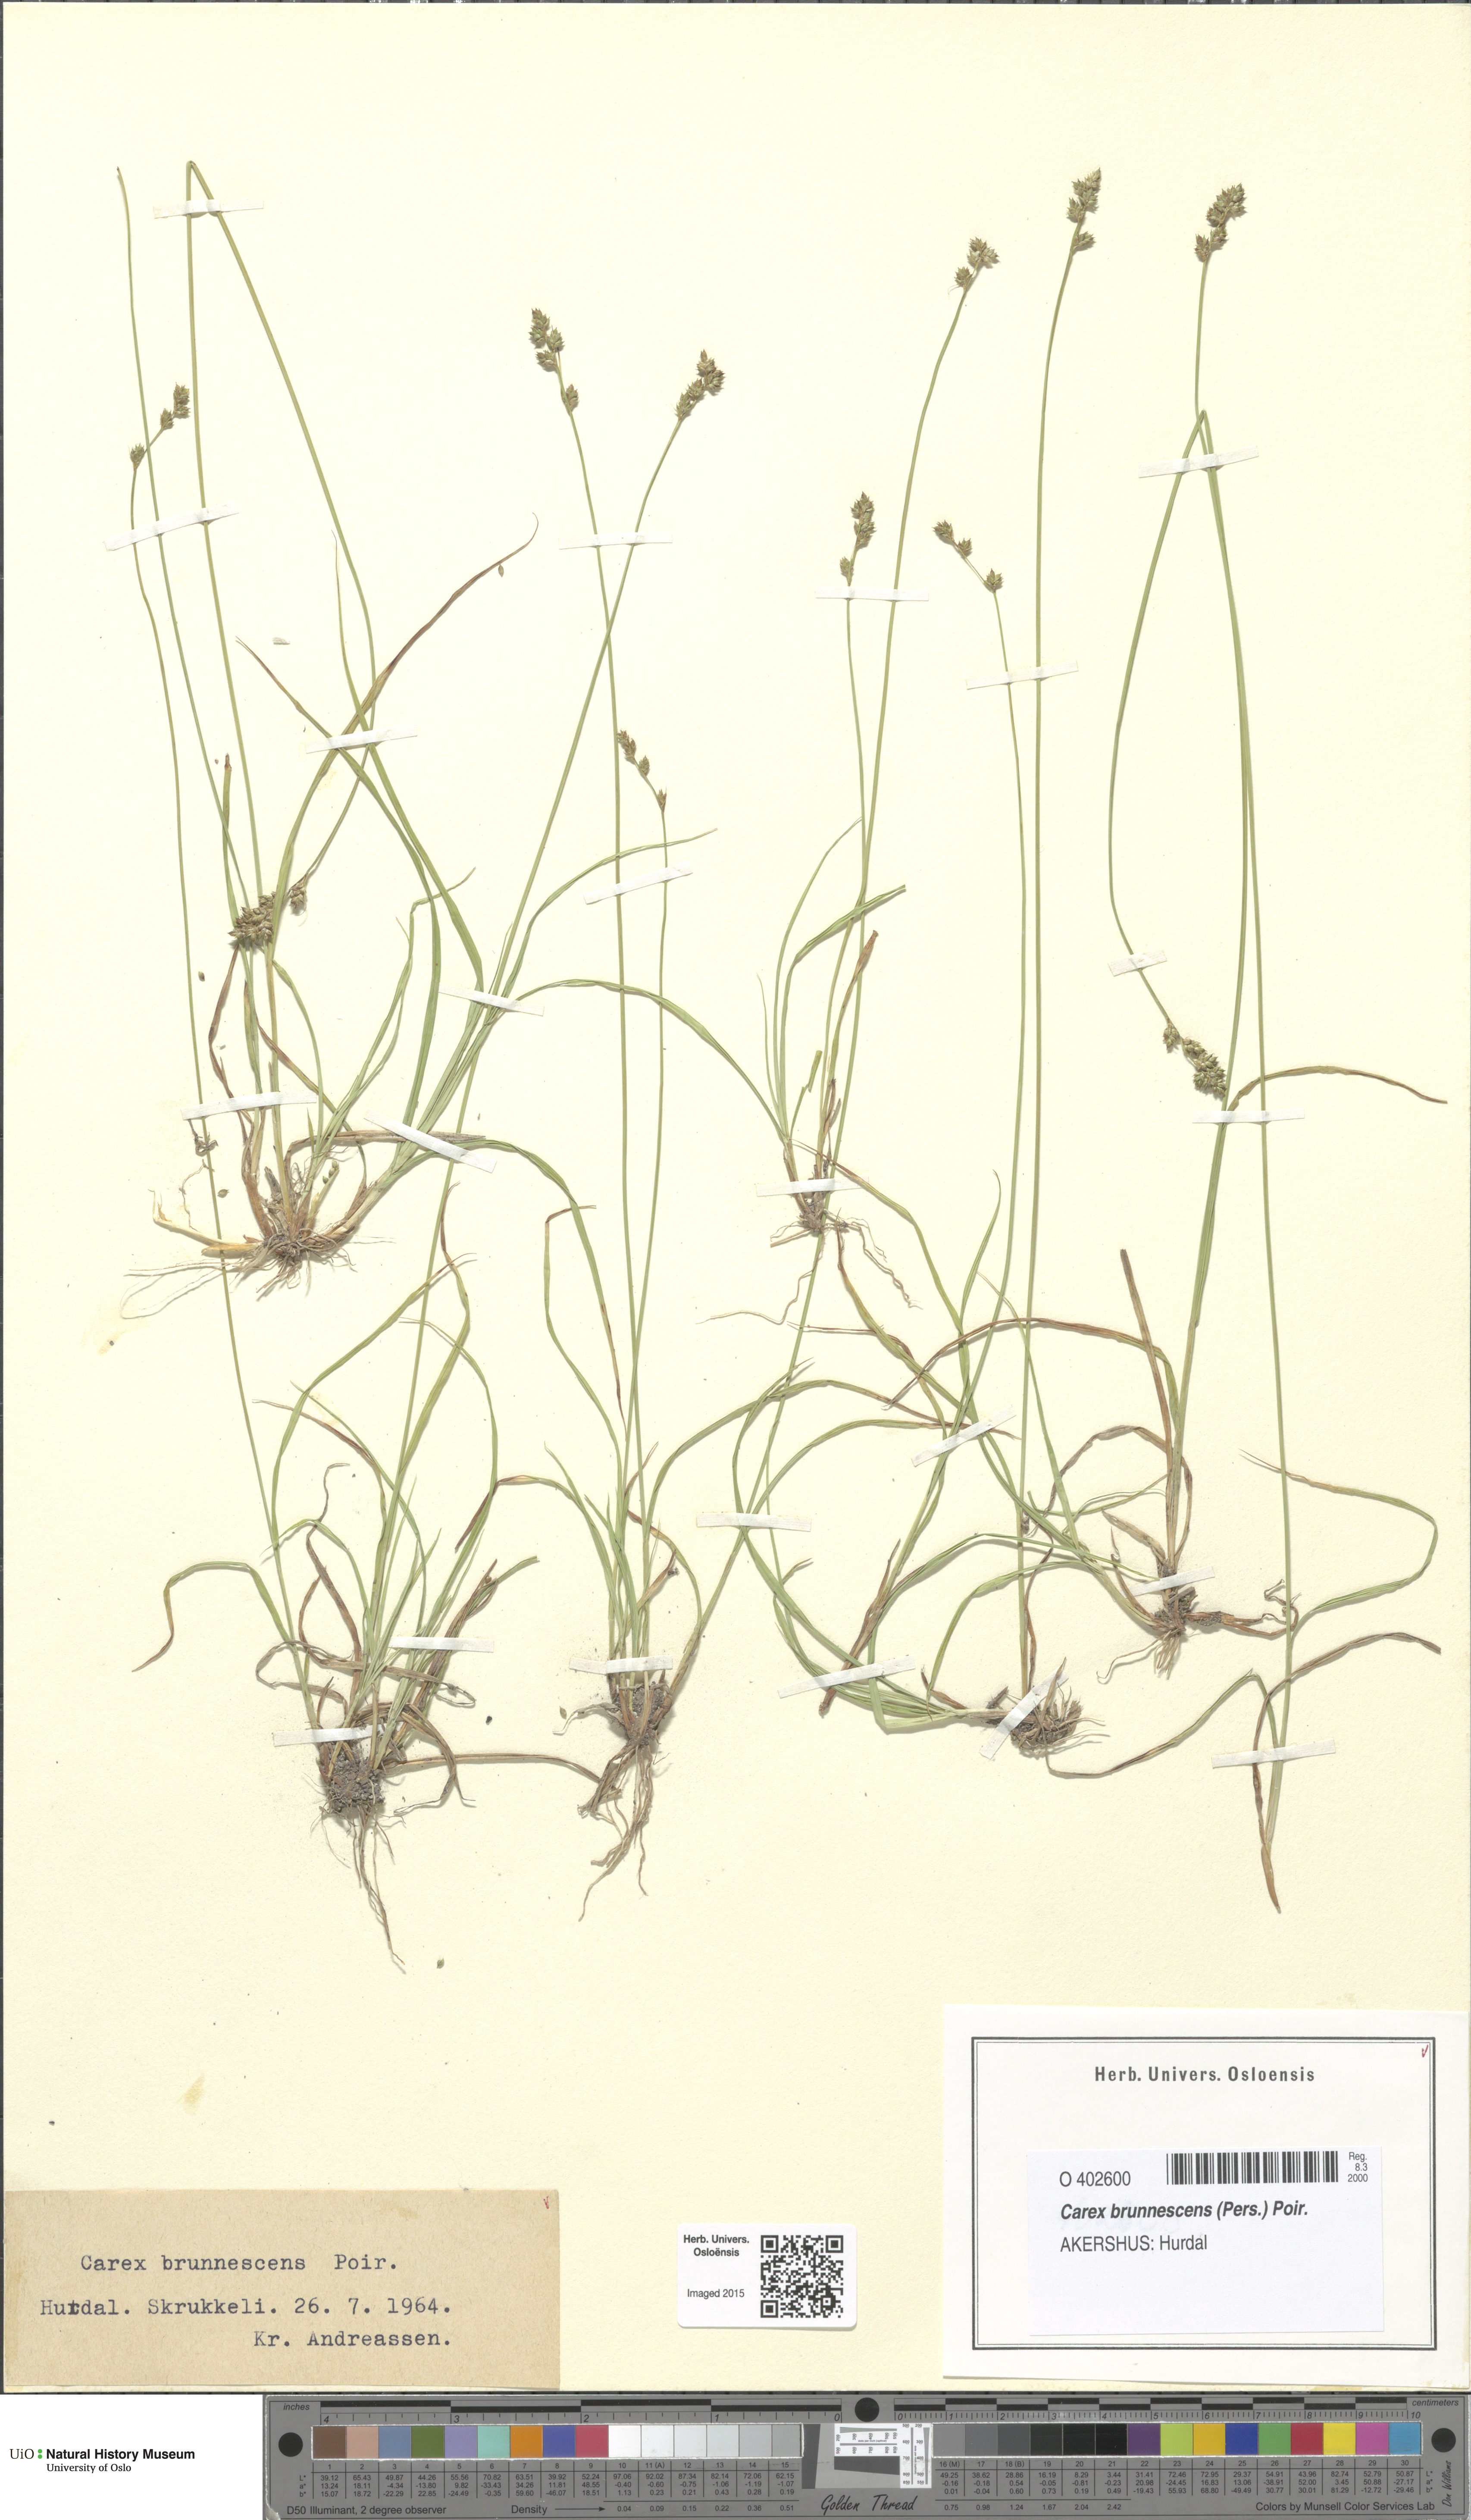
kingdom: Plantae
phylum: Tracheophyta
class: Liliopsida
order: Poales
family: Cyperaceae
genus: Carex
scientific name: Carex brunnescens
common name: Brown sedge
